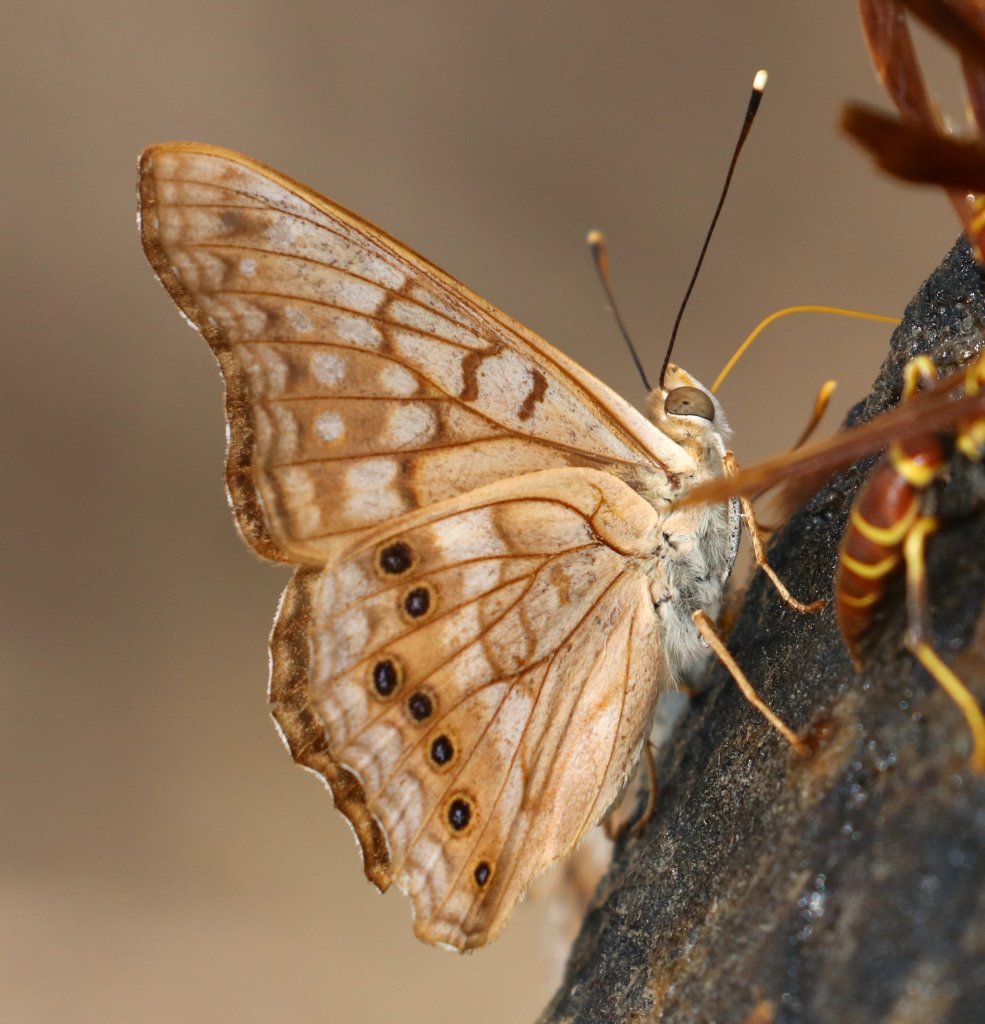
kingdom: Animalia
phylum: Arthropoda
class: Insecta
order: Lepidoptera
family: Nymphalidae
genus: Asterocampa
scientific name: Asterocampa clyton
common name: Tawny Emperor
